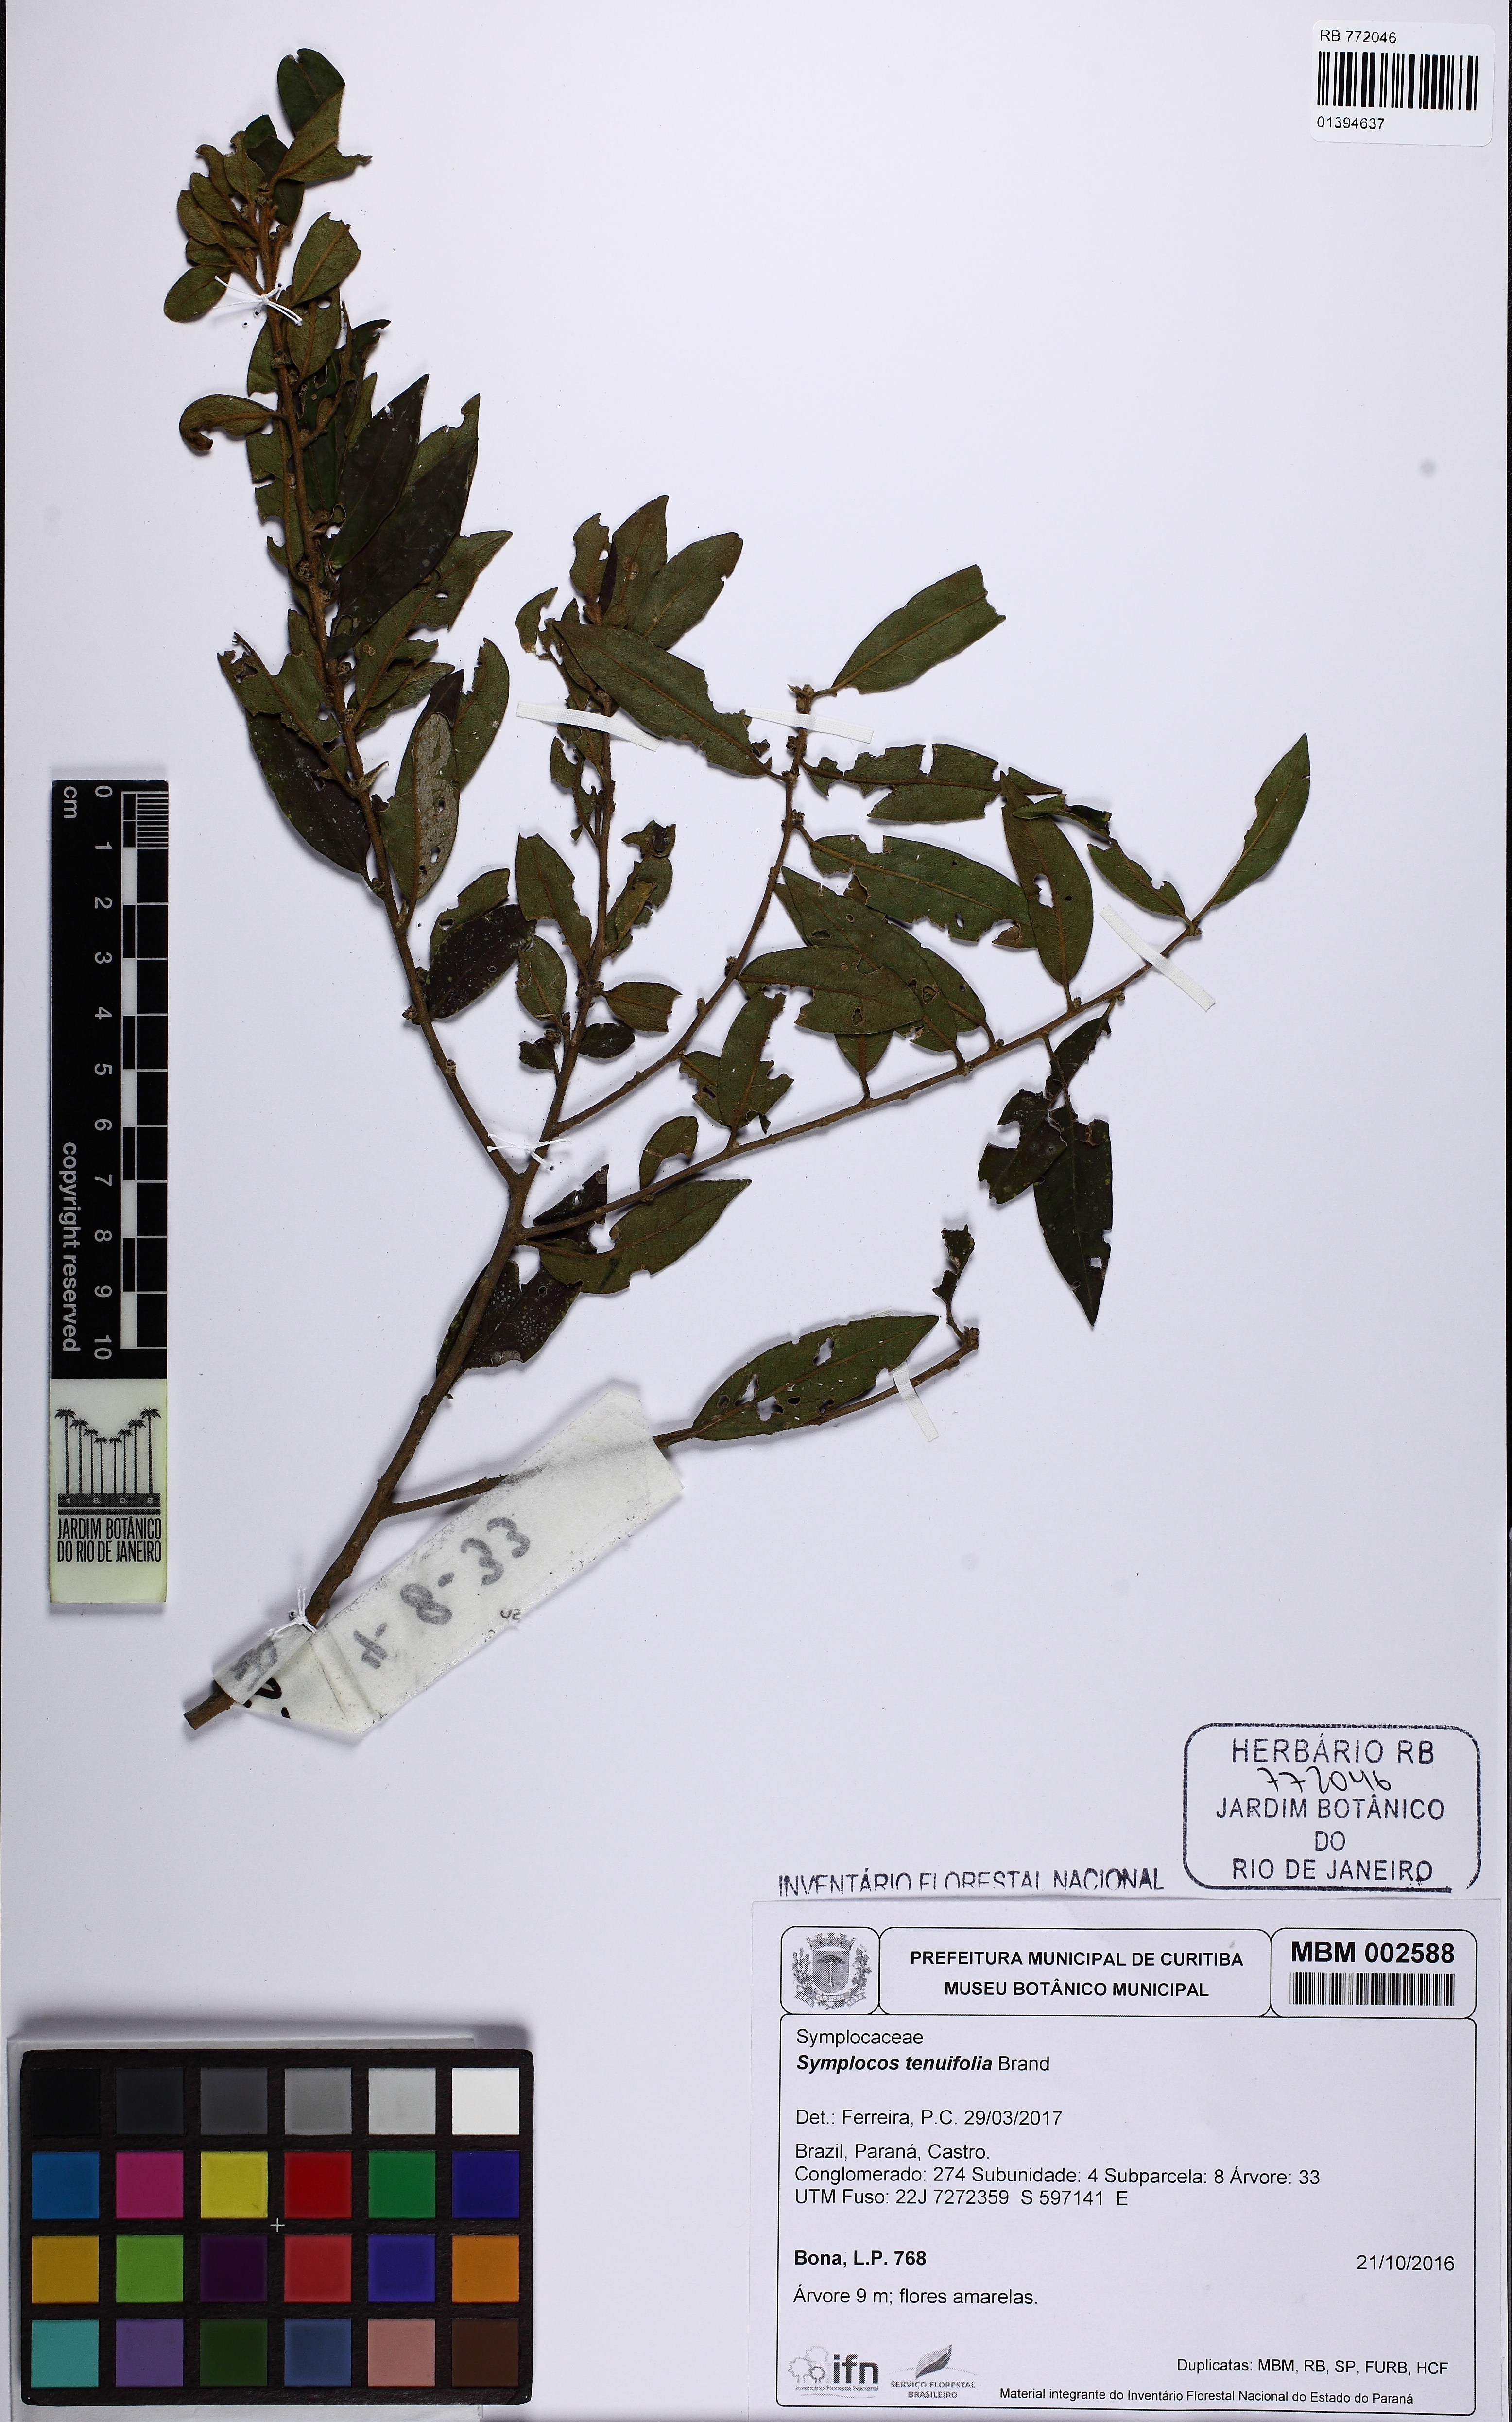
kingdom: Plantae
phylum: Tracheophyta
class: Magnoliopsida
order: Ericales
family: Symplocaceae
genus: Symplocos
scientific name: Symplocos tenuifolia
